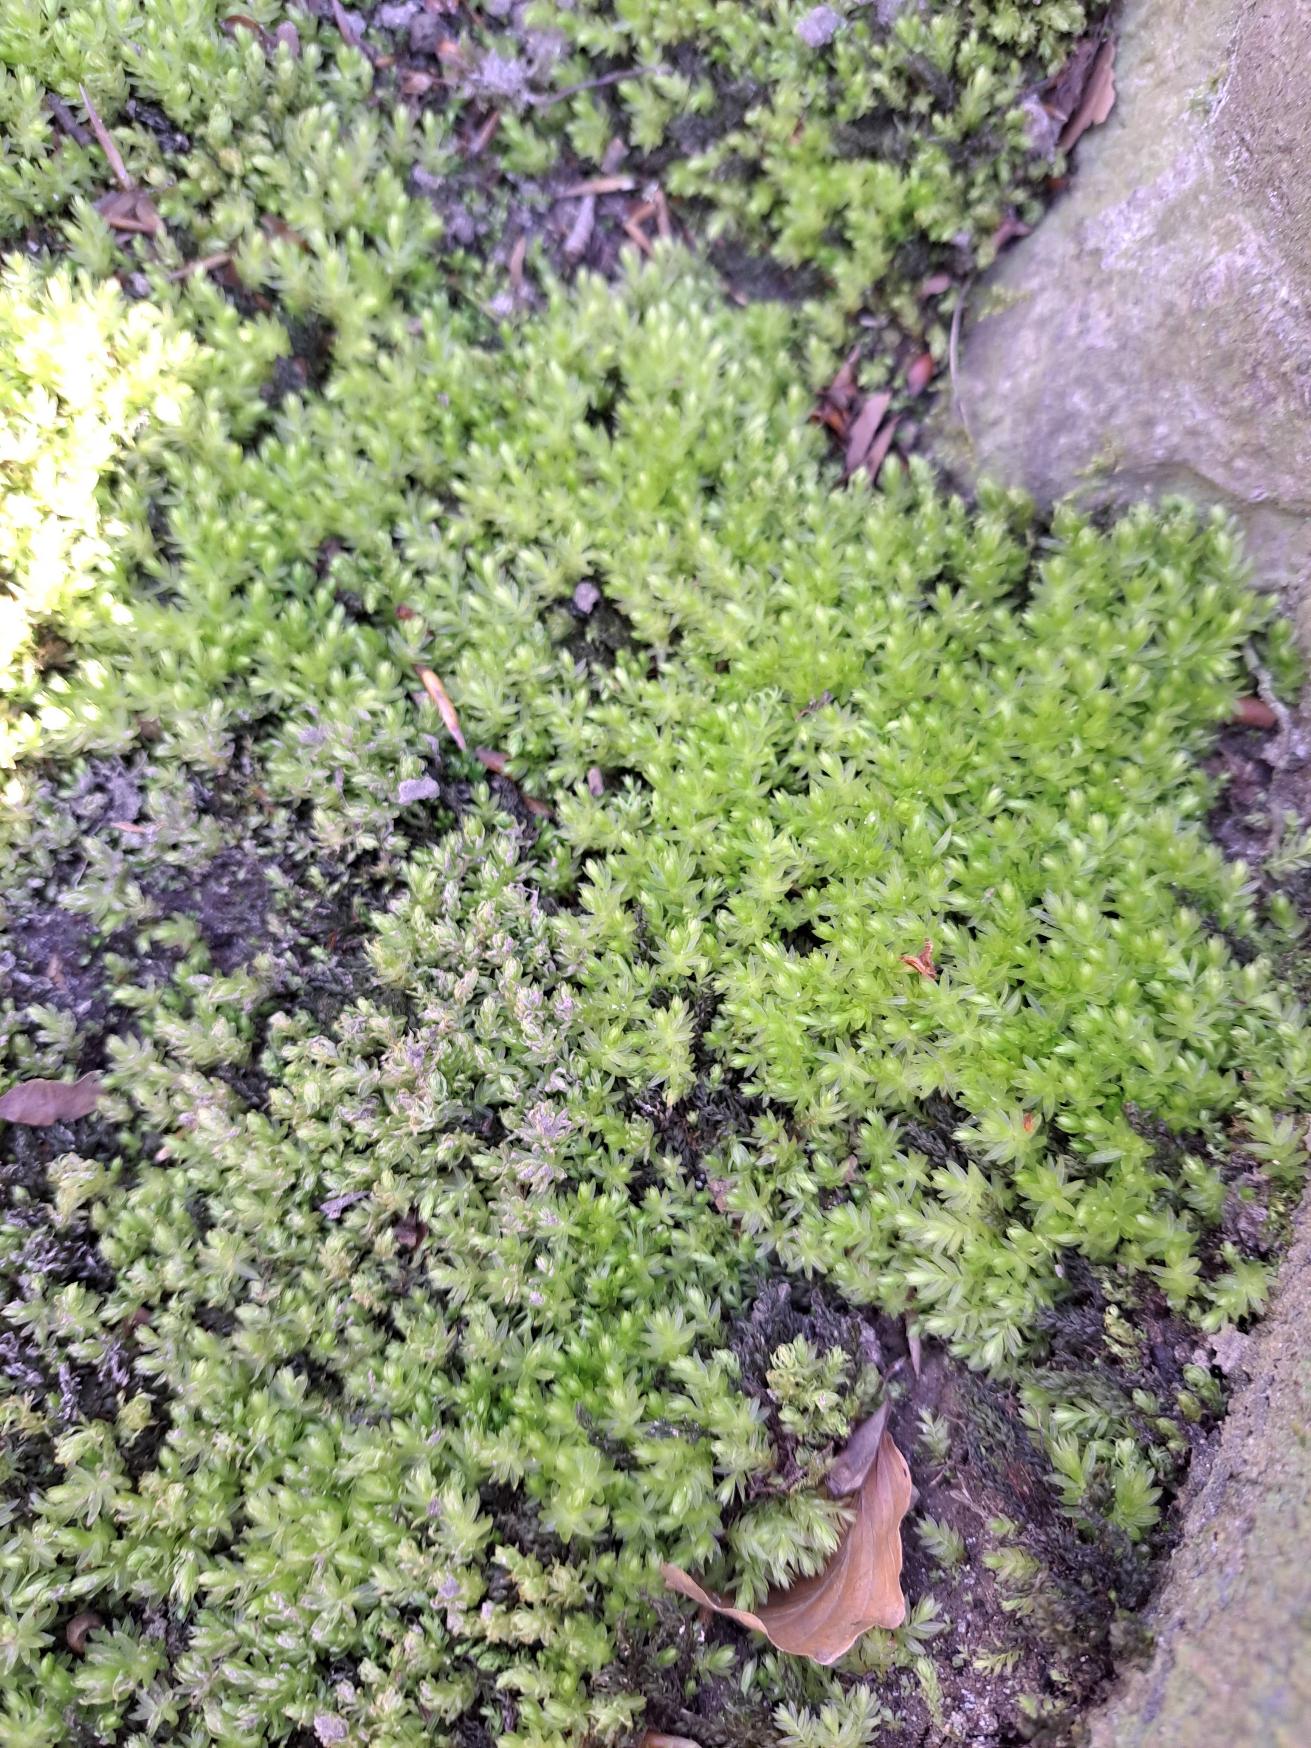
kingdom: Plantae
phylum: Bryophyta
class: Bryopsida
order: Bryales
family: Mniaceae
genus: Mnium
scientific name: Mnium hornum
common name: Brunfiltet stjernemos
